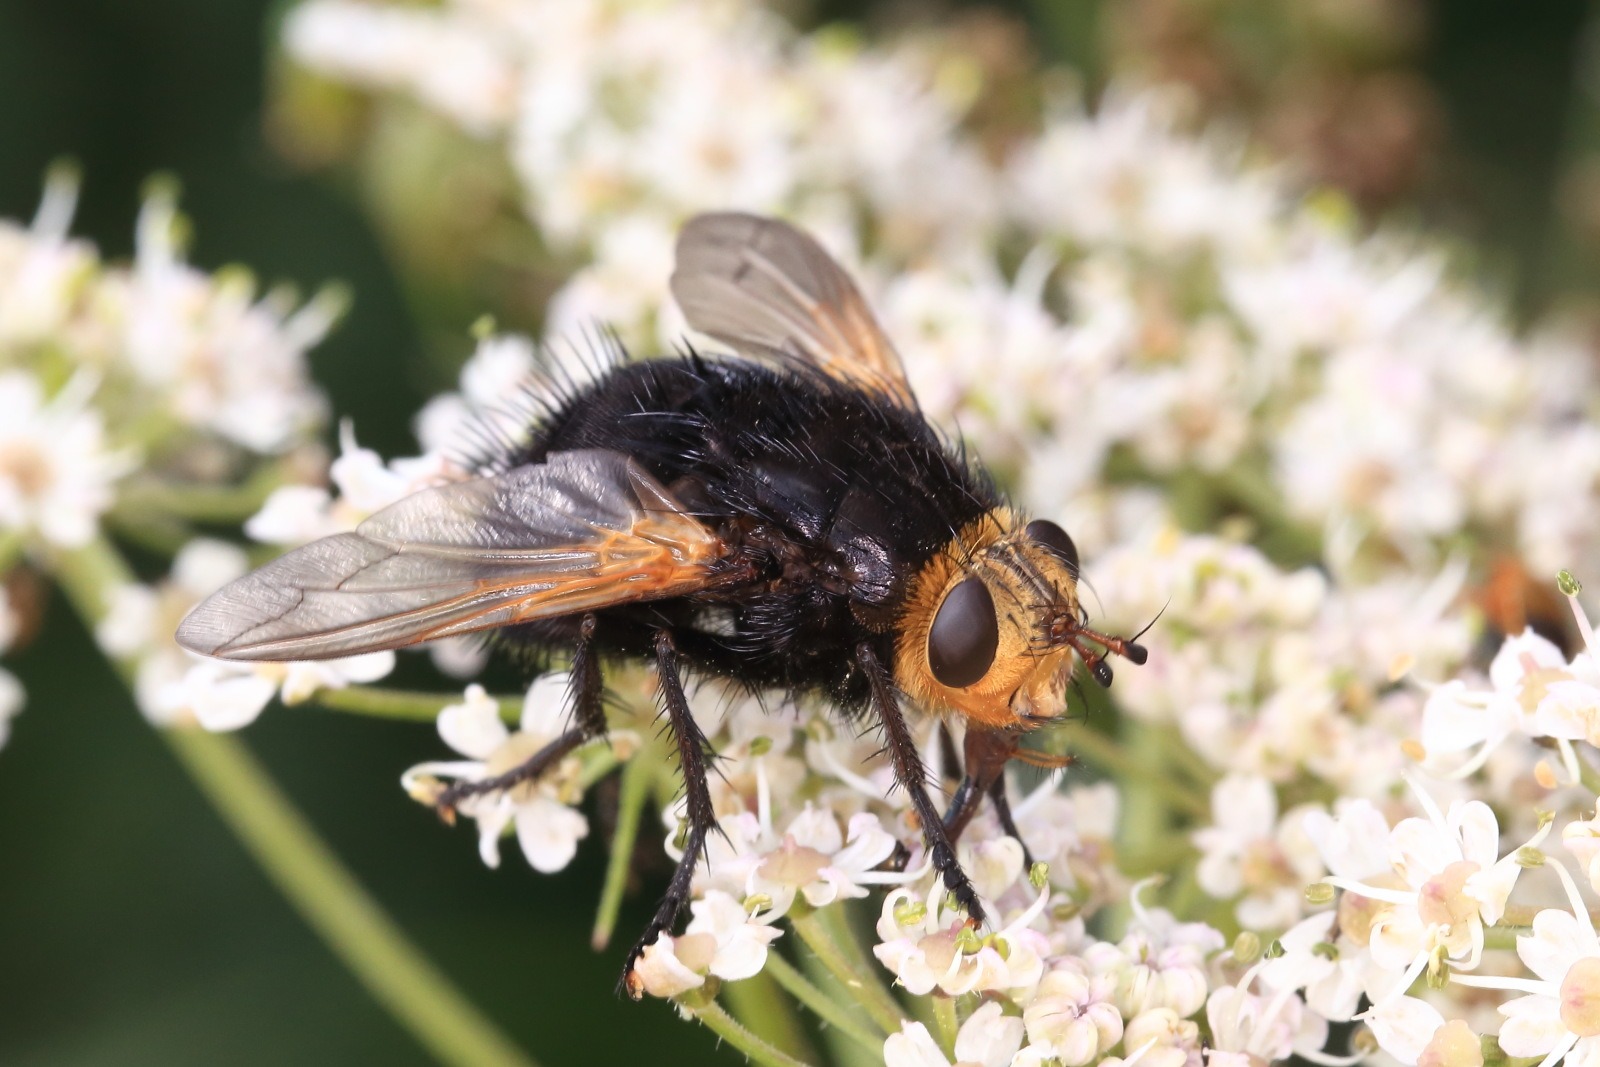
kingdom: Animalia
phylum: Arthropoda
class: Insecta
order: Diptera
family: Tachinidae
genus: Tachina
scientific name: Tachina grossa
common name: Kæmpefluen Harald
